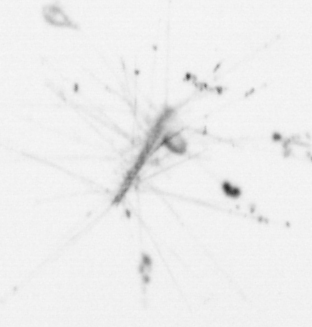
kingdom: Chromista
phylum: Ochrophyta
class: Bacillariophyceae
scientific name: Bacillariophyceae
